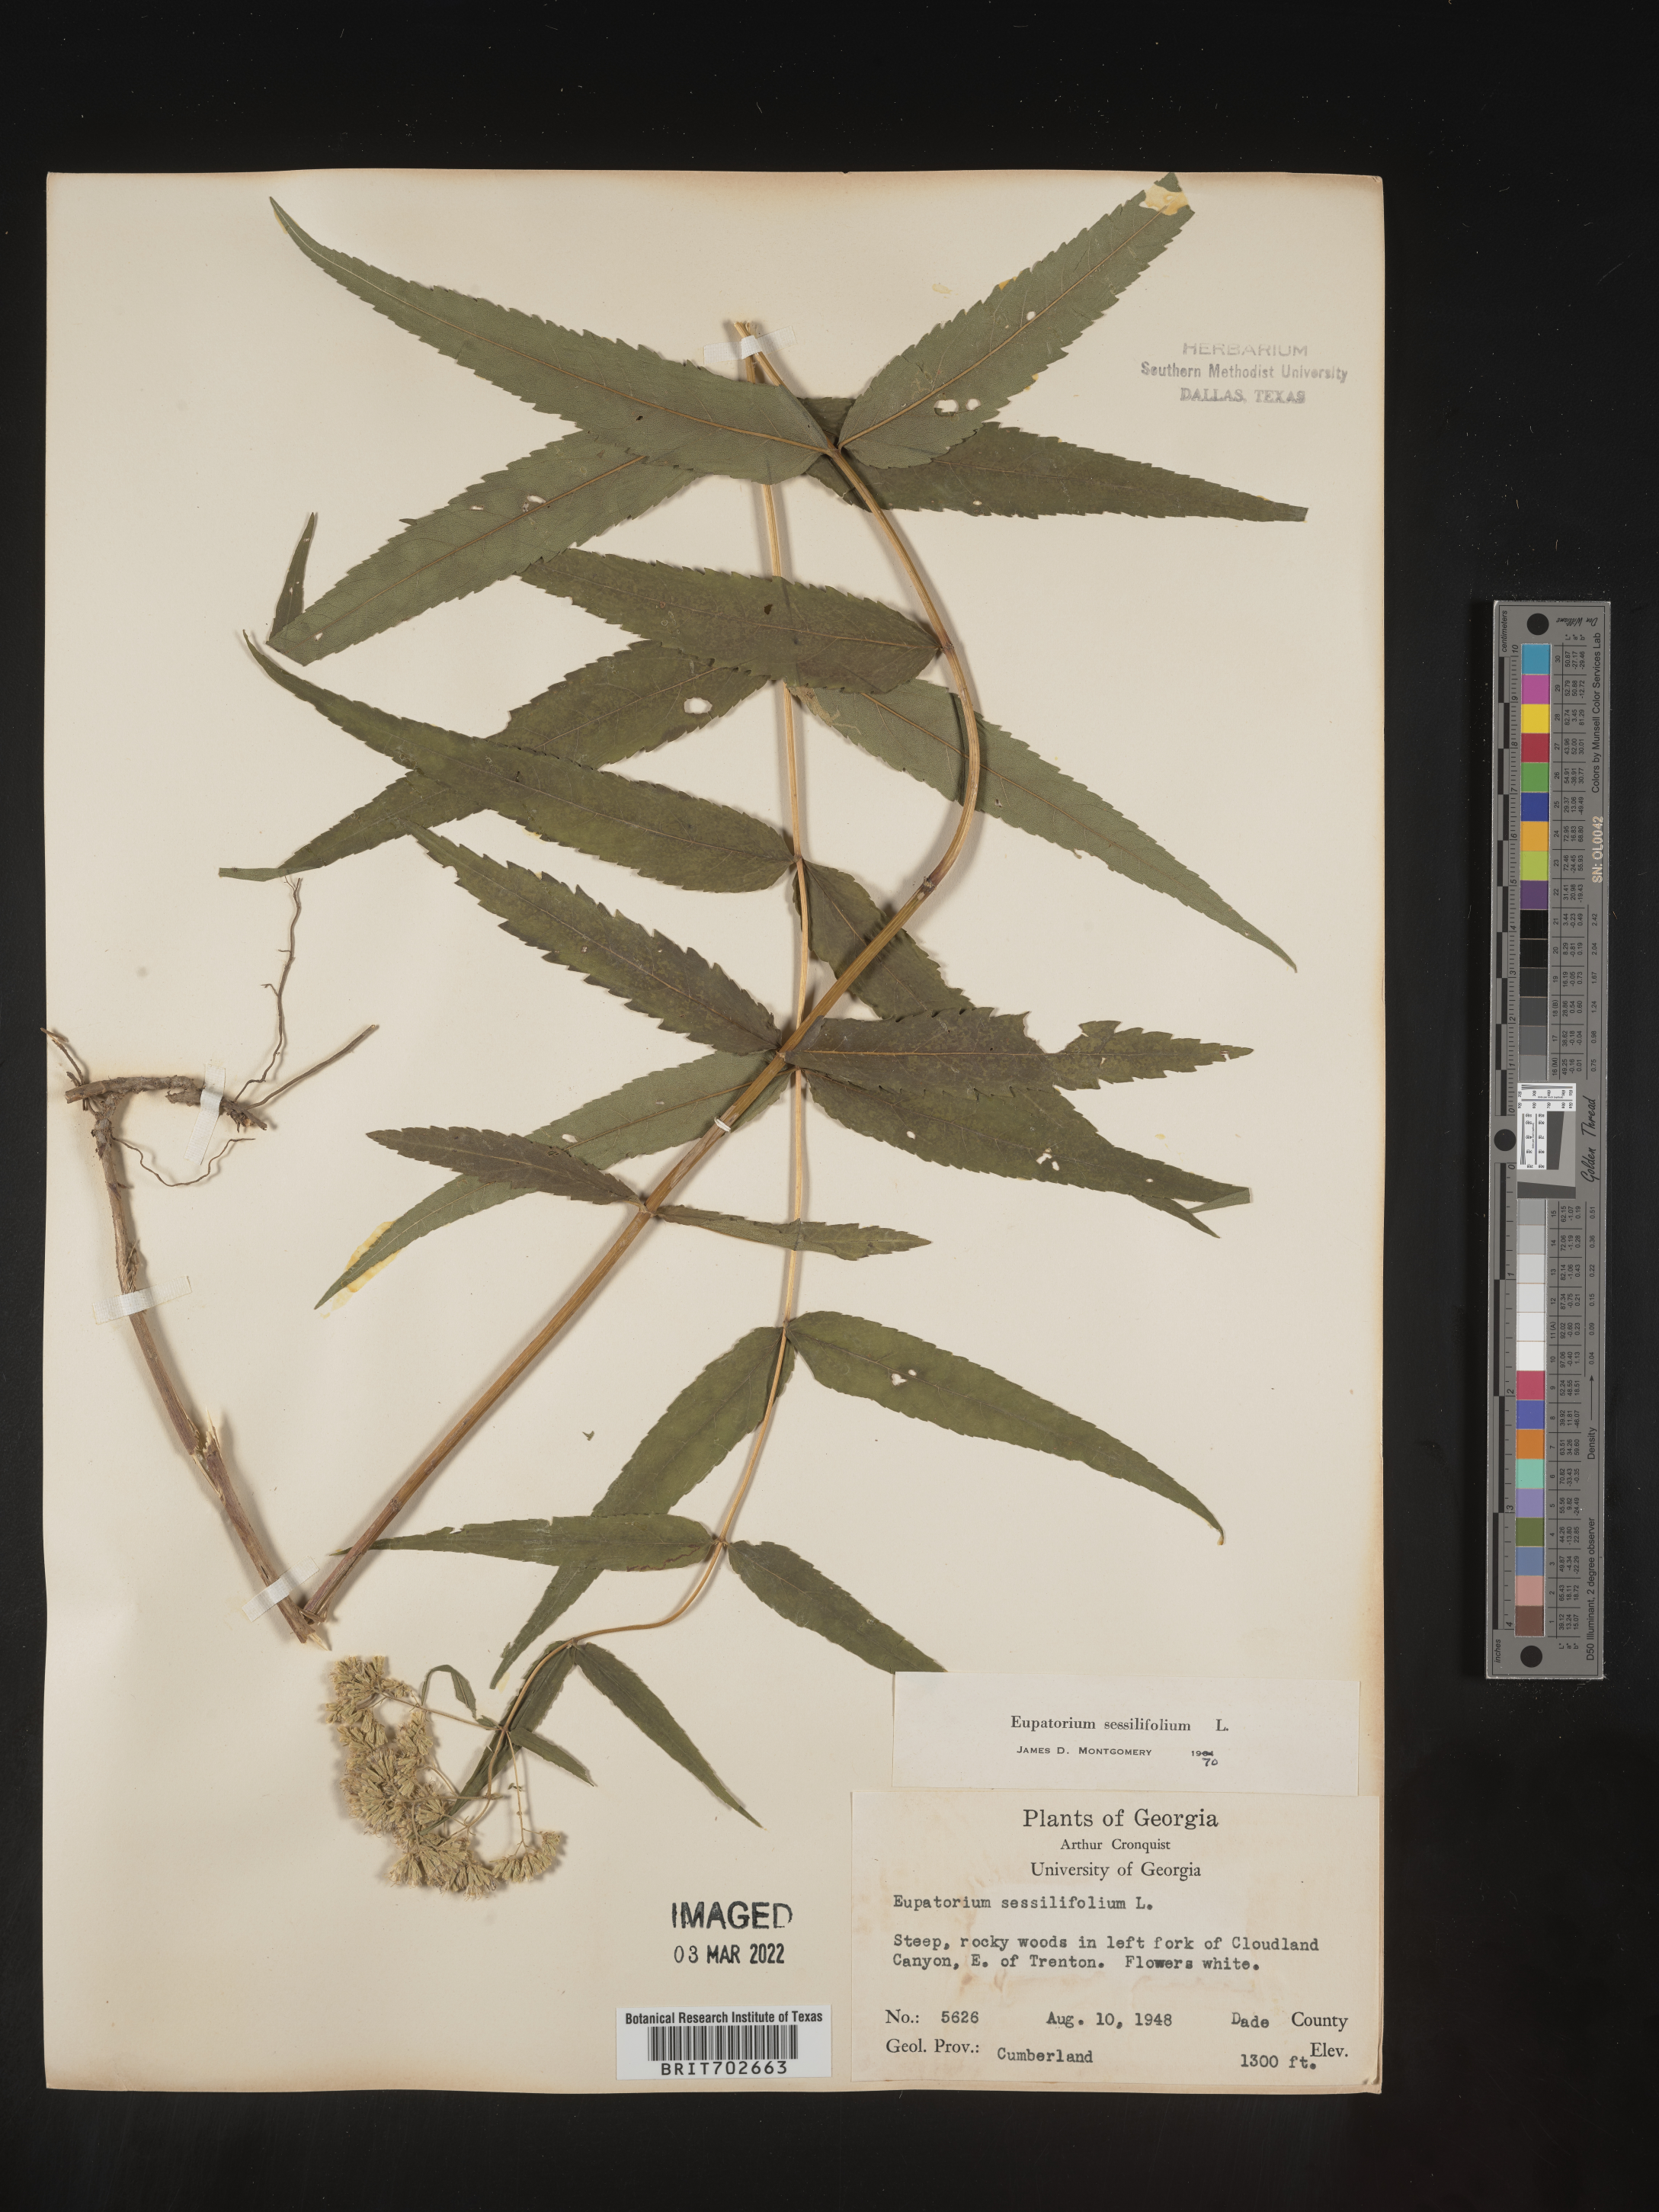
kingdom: Plantae
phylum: Tracheophyta
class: Magnoliopsida
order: Asterales
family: Asteraceae
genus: Eupatorium
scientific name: Eupatorium sessilifolium
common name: Upland boneset
